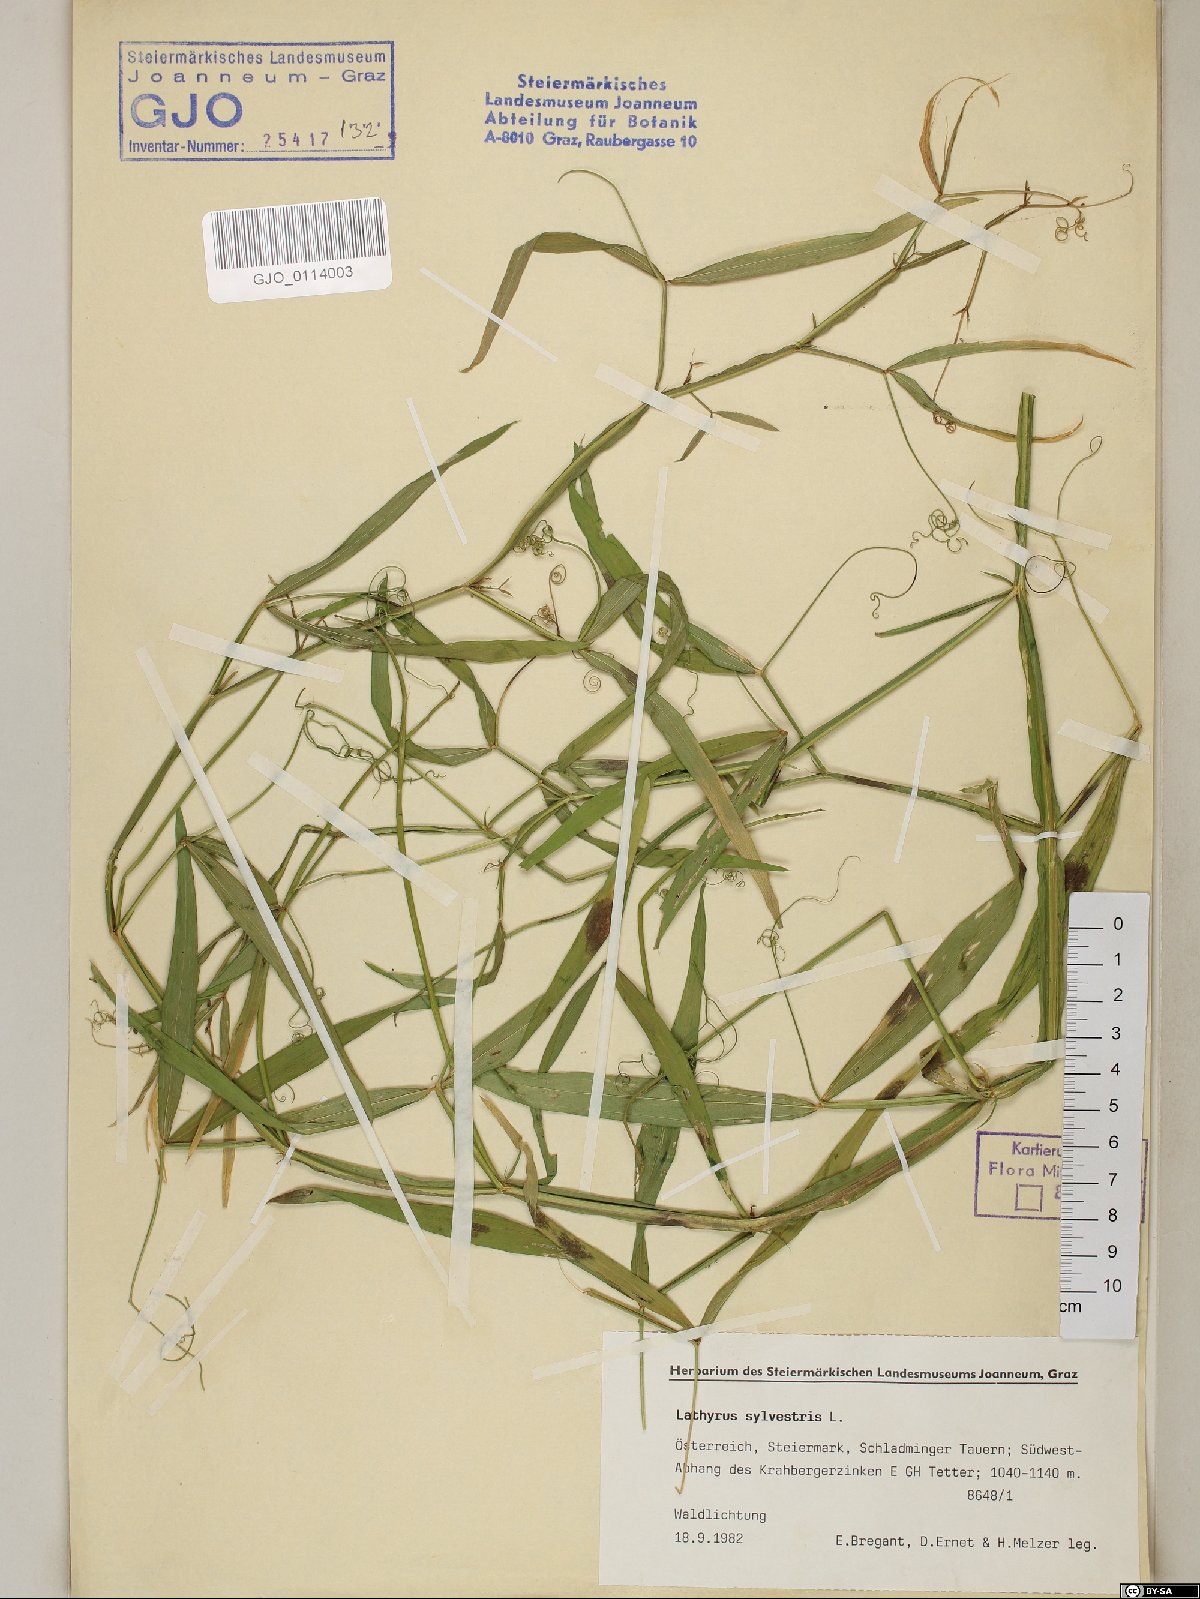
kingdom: Plantae
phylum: Tracheophyta
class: Magnoliopsida
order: Fabales
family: Fabaceae
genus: Lathyrus
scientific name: Lathyrus sylvestris
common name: Flat pea
